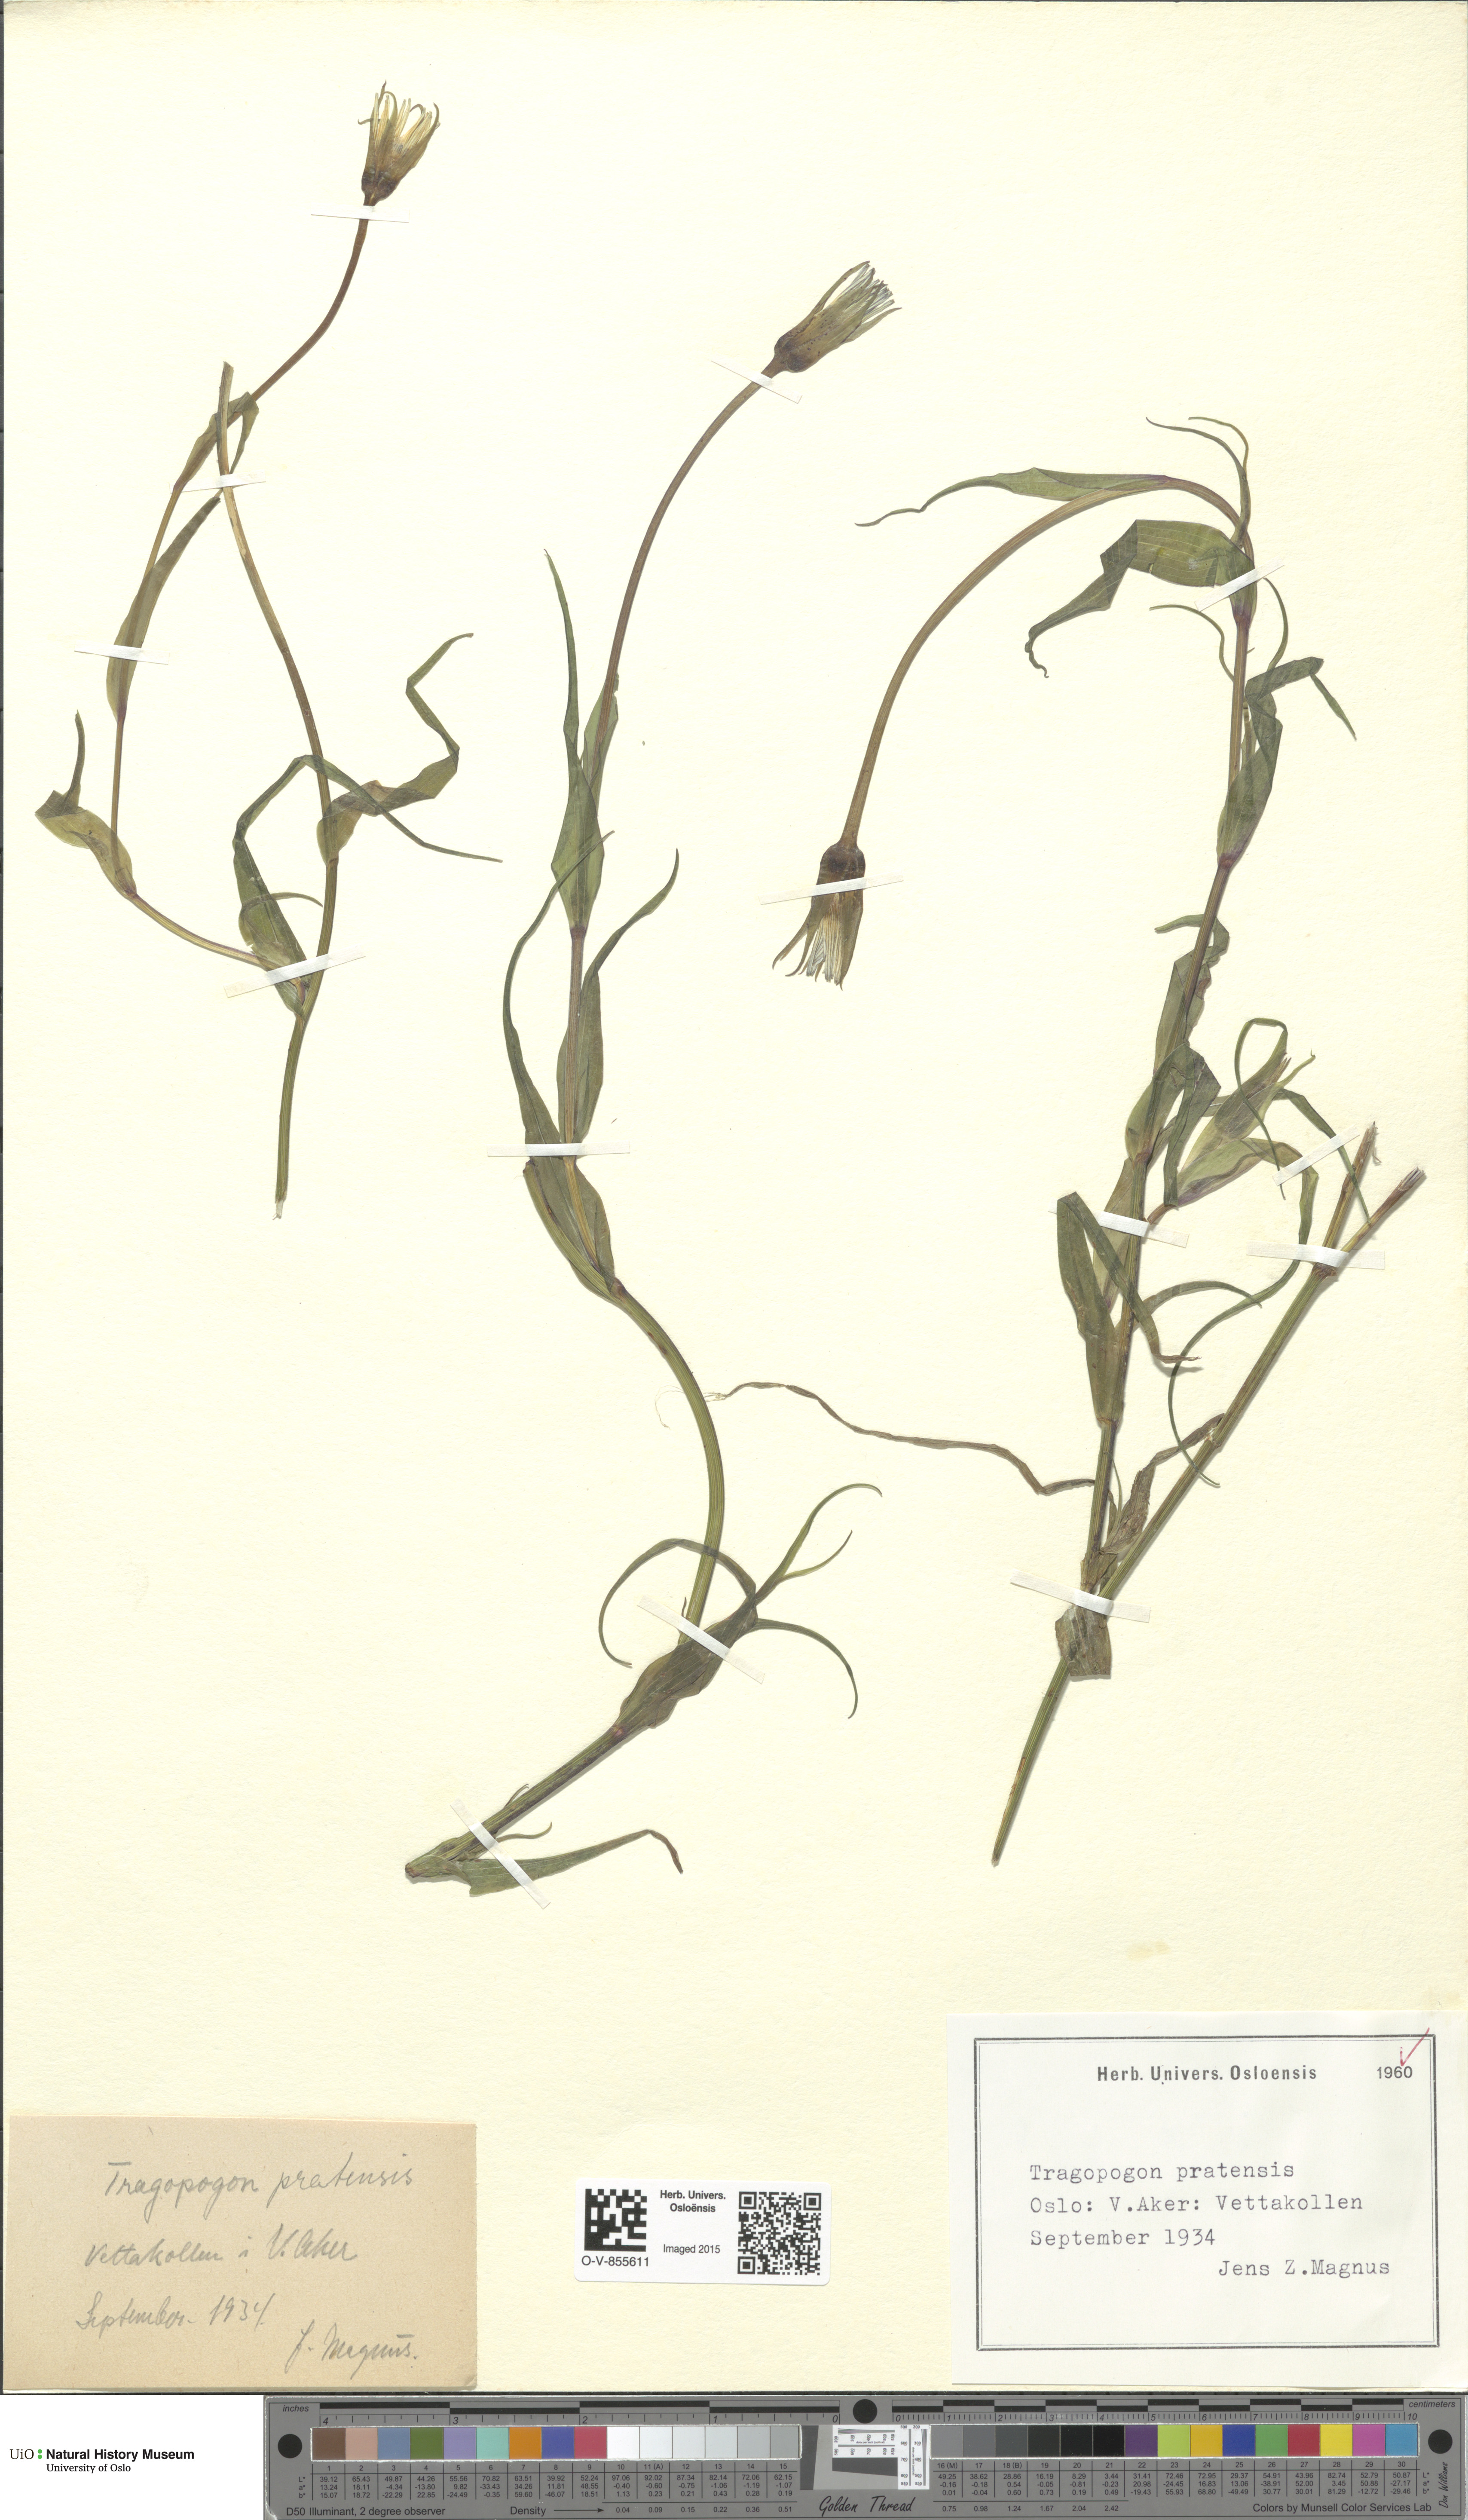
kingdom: Plantae
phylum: Tracheophyta
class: Magnoliopsida
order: Asterales
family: Asteraceae
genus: Tragopogon
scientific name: Tragopogon pratensis
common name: Goat's-beard
